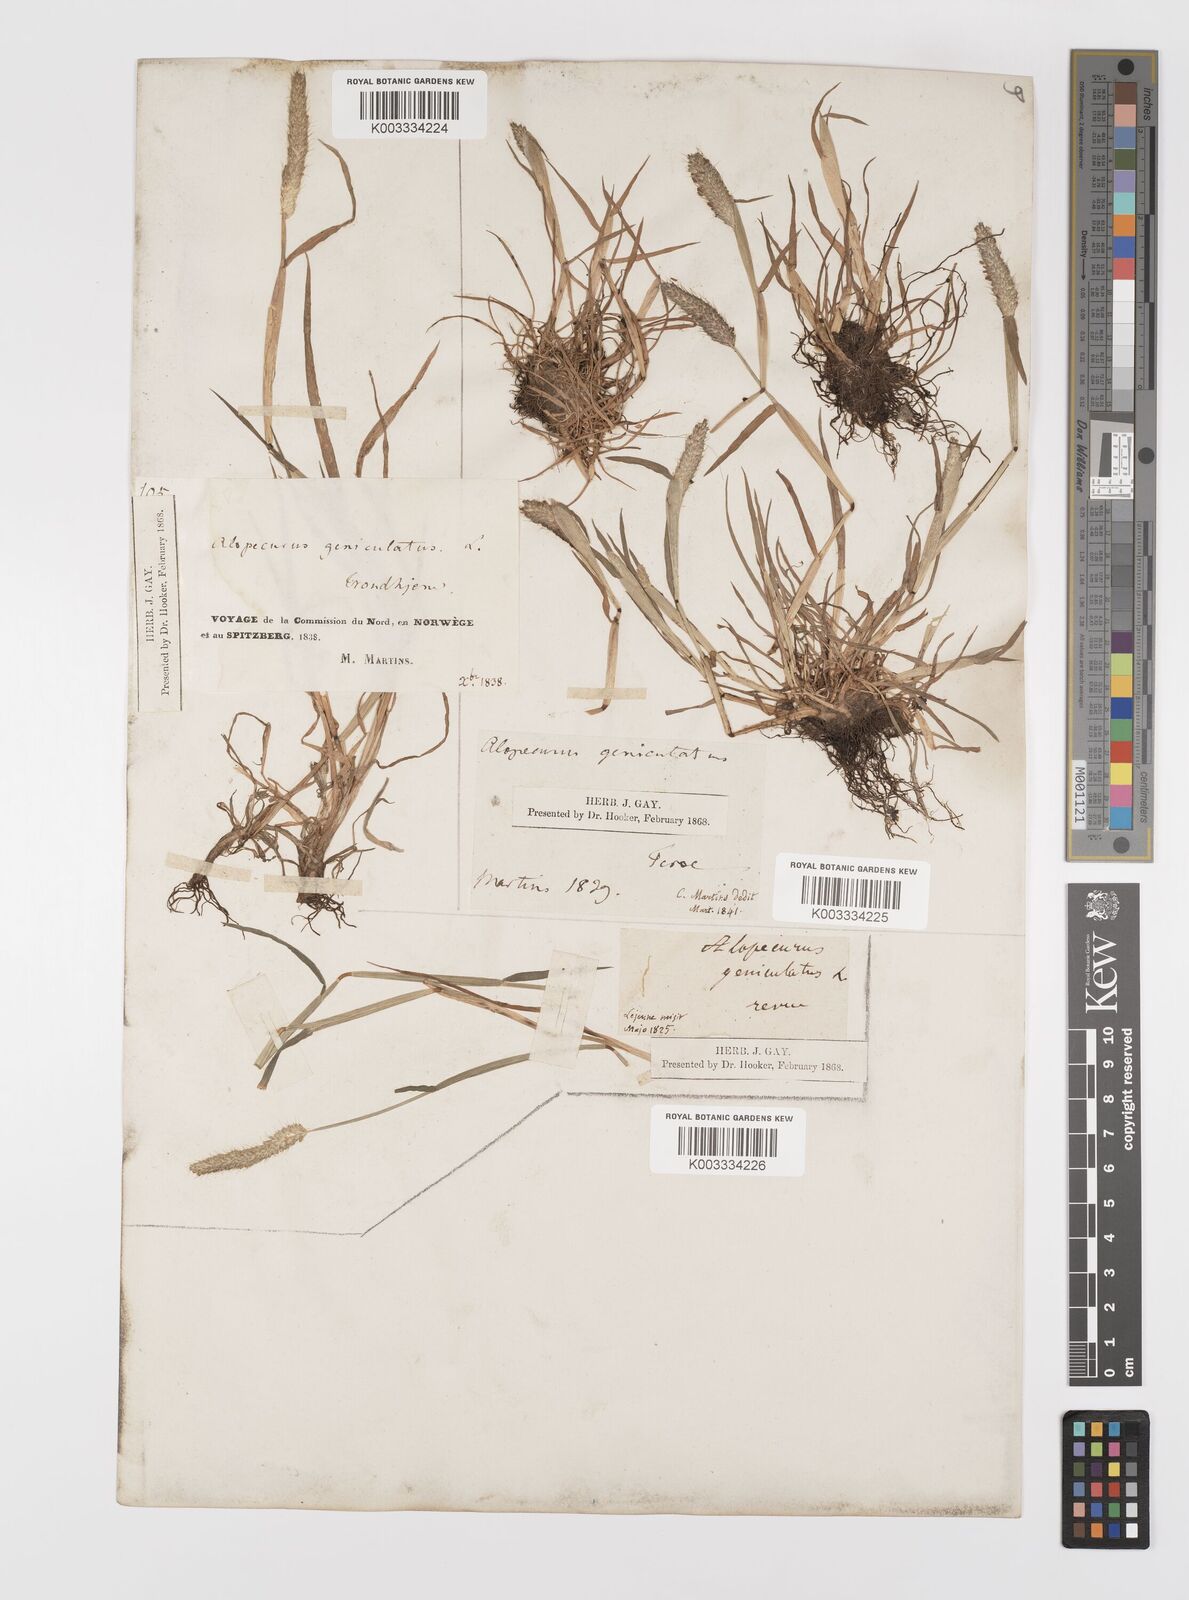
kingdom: Plantae
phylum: Tracheophyta
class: Liliopsida
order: Poales
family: Poaceae
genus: Alopecurus
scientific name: Alopecurus geniculatus
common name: Water foxtail
